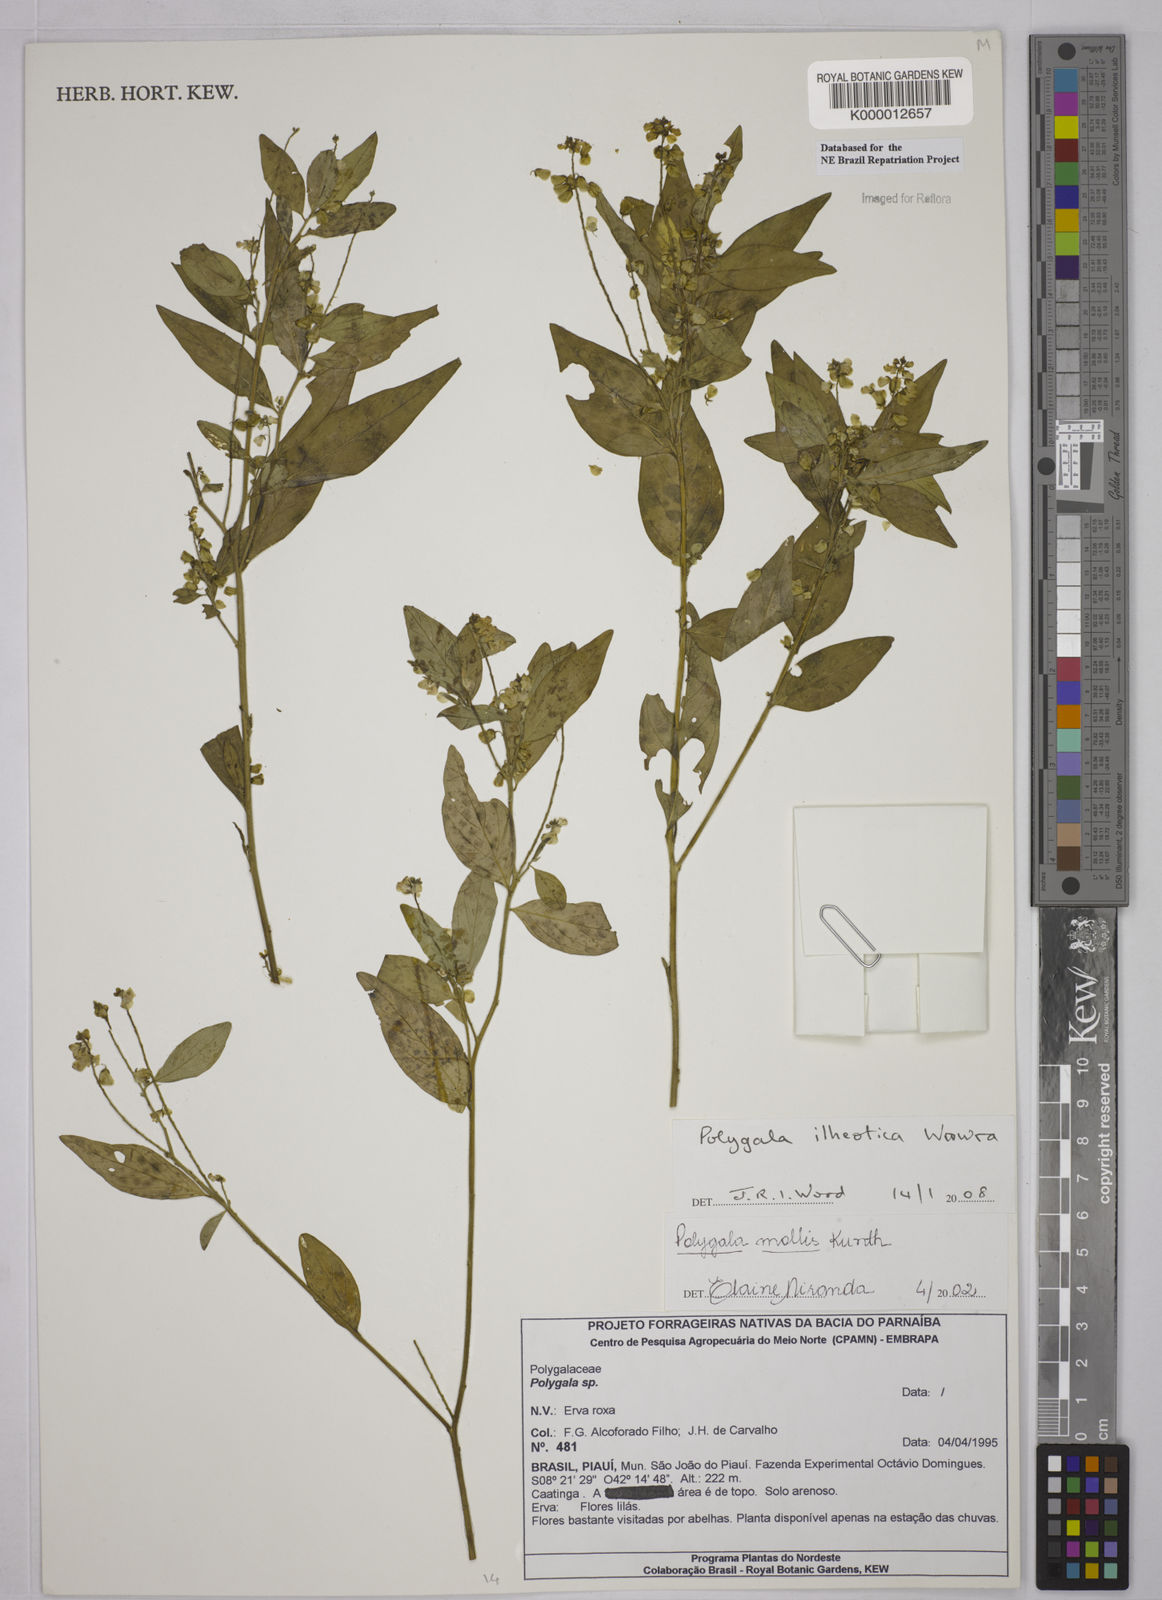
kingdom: Plantae
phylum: Tracheophyta
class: Magnoliopsida
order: Fabales
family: Polygalaceae
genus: Asemeia
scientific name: Asemeia mollis
